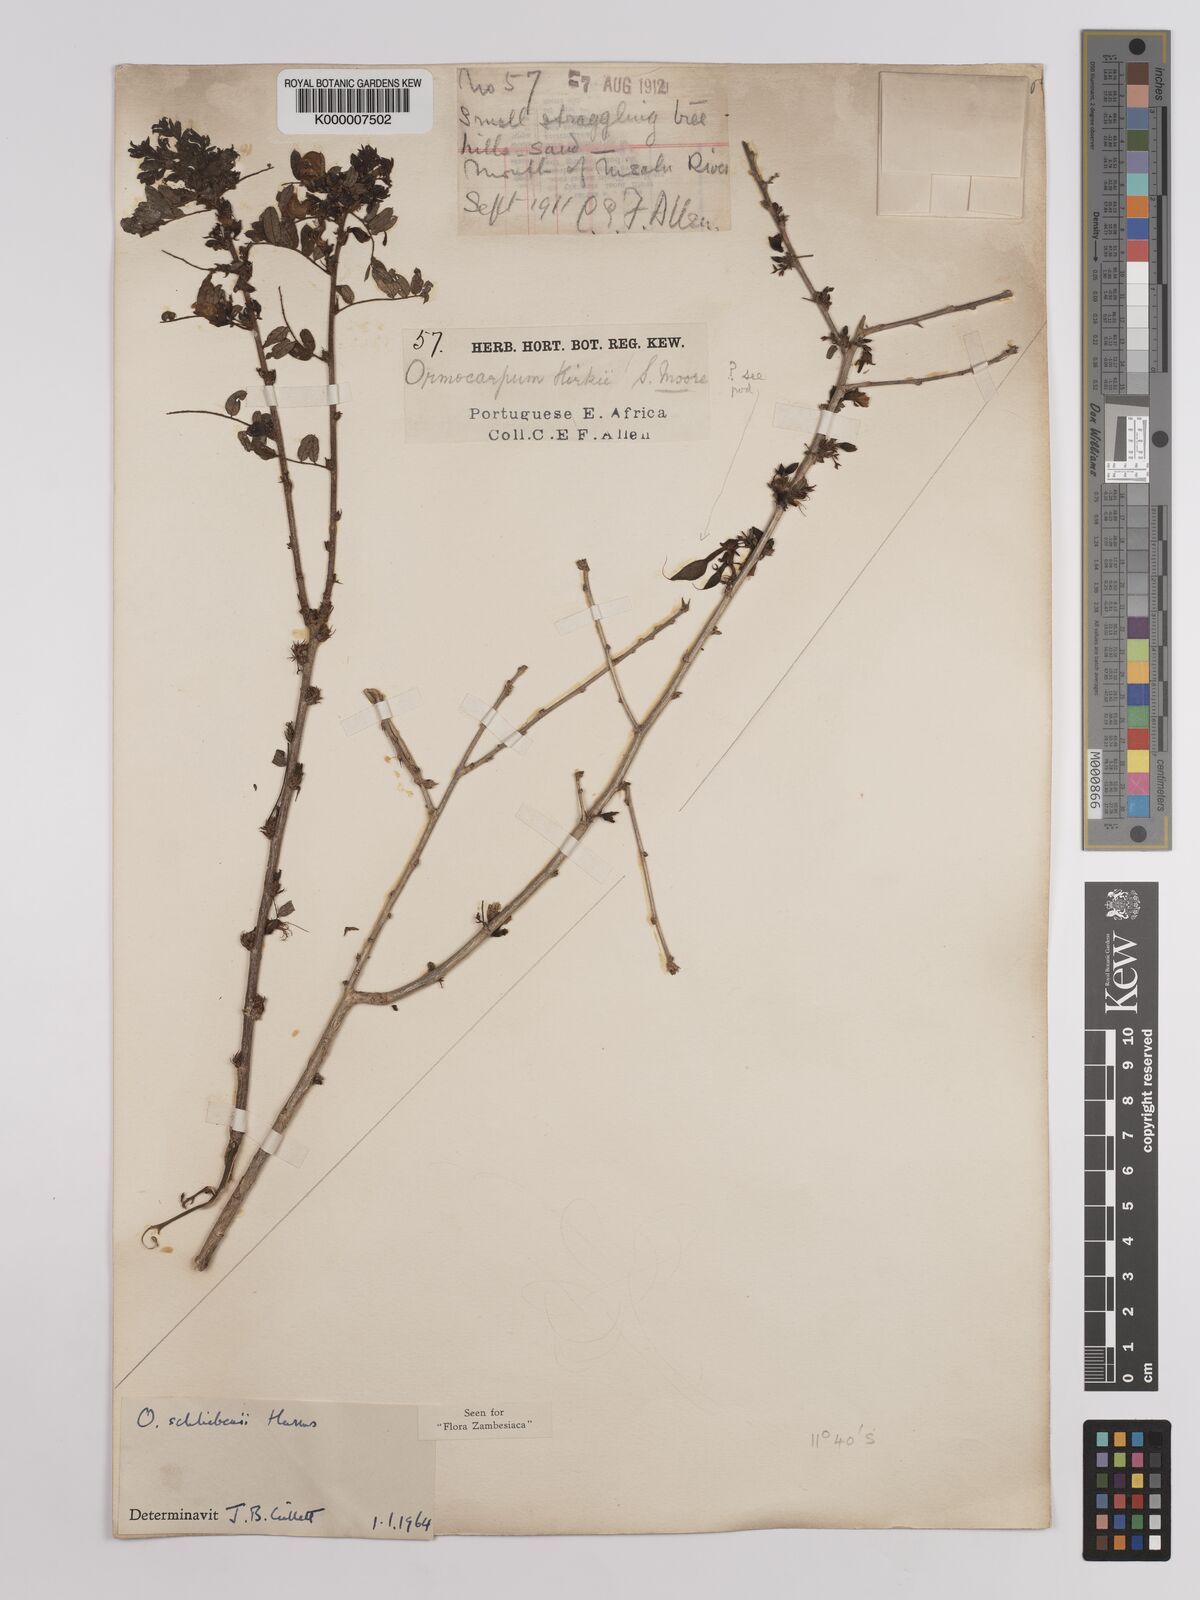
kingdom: Plantae
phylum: Tracheophyta
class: Magnoliopsida
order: Fabales
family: Fabaceae
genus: Ormocarpum
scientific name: Ormocarpum schliebenii
